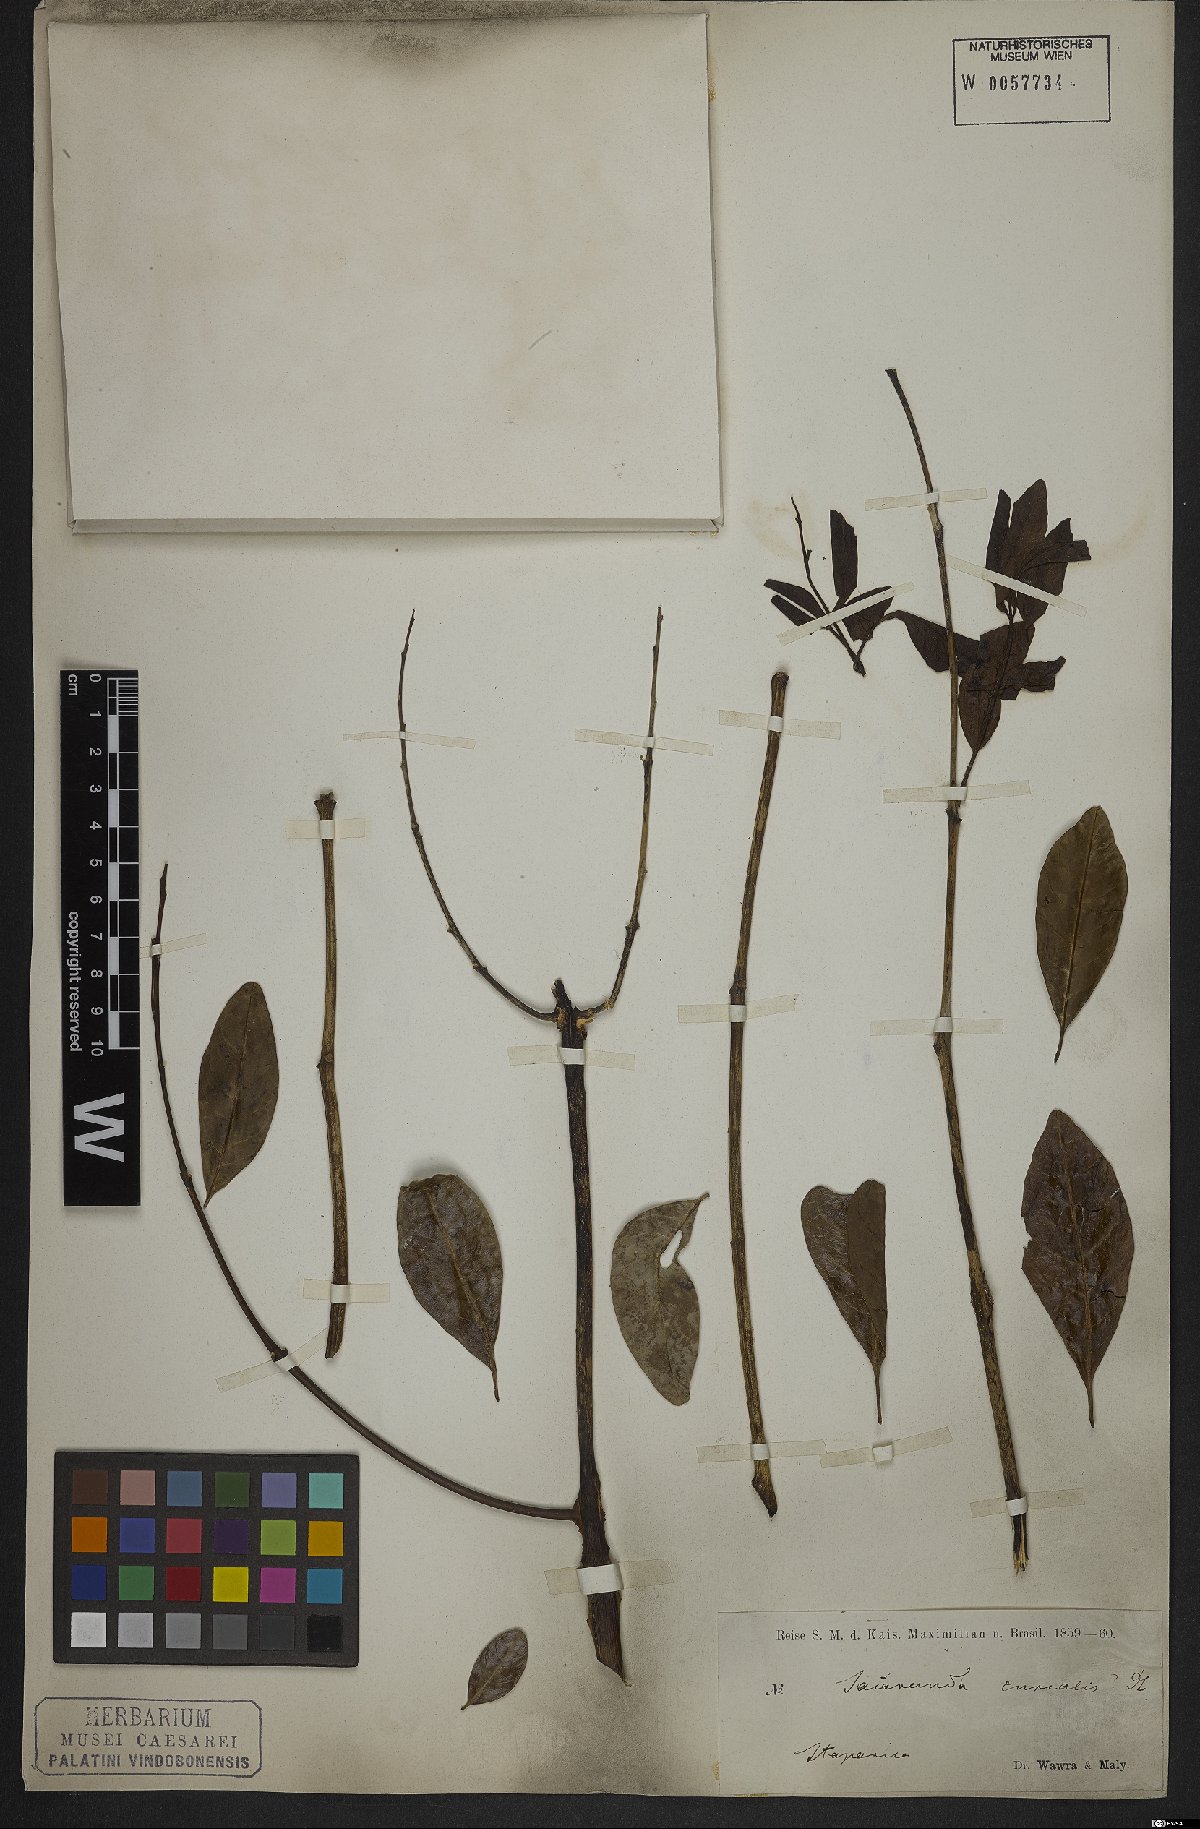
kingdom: Plantae
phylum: Tracheophyta
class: Magnoliopsida
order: Lamiales
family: Bignoniaceae
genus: Jacaranda
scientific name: Jacaranda jasminoides
